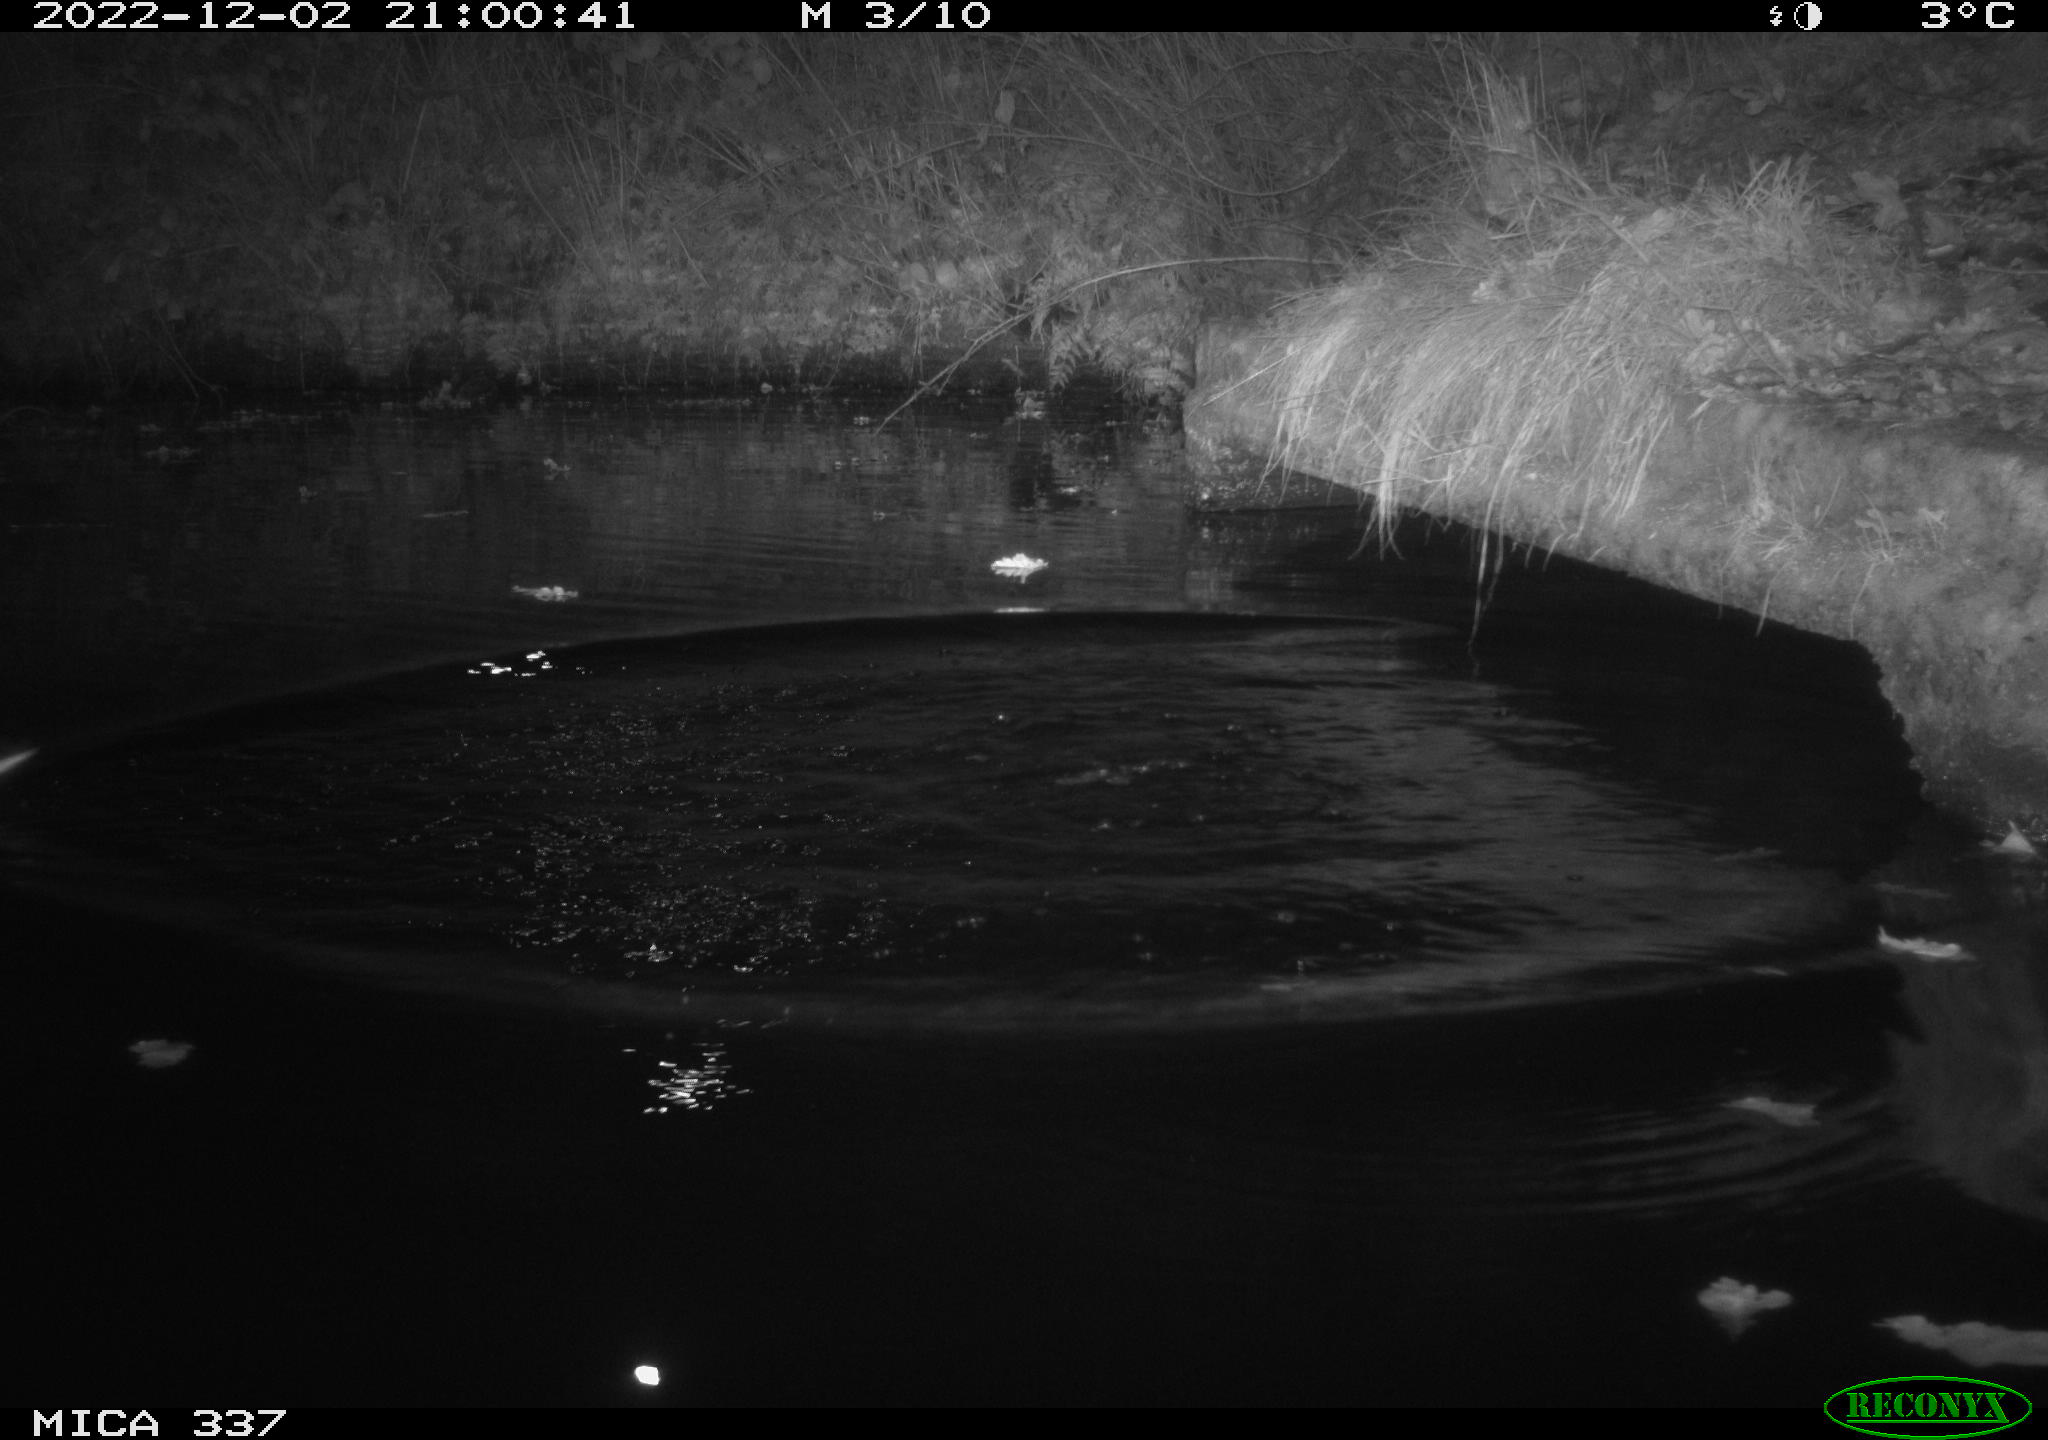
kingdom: Animalia
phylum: Chordata
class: Aves
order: Anseriformes
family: Anatidae
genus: Anas
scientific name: Anas
